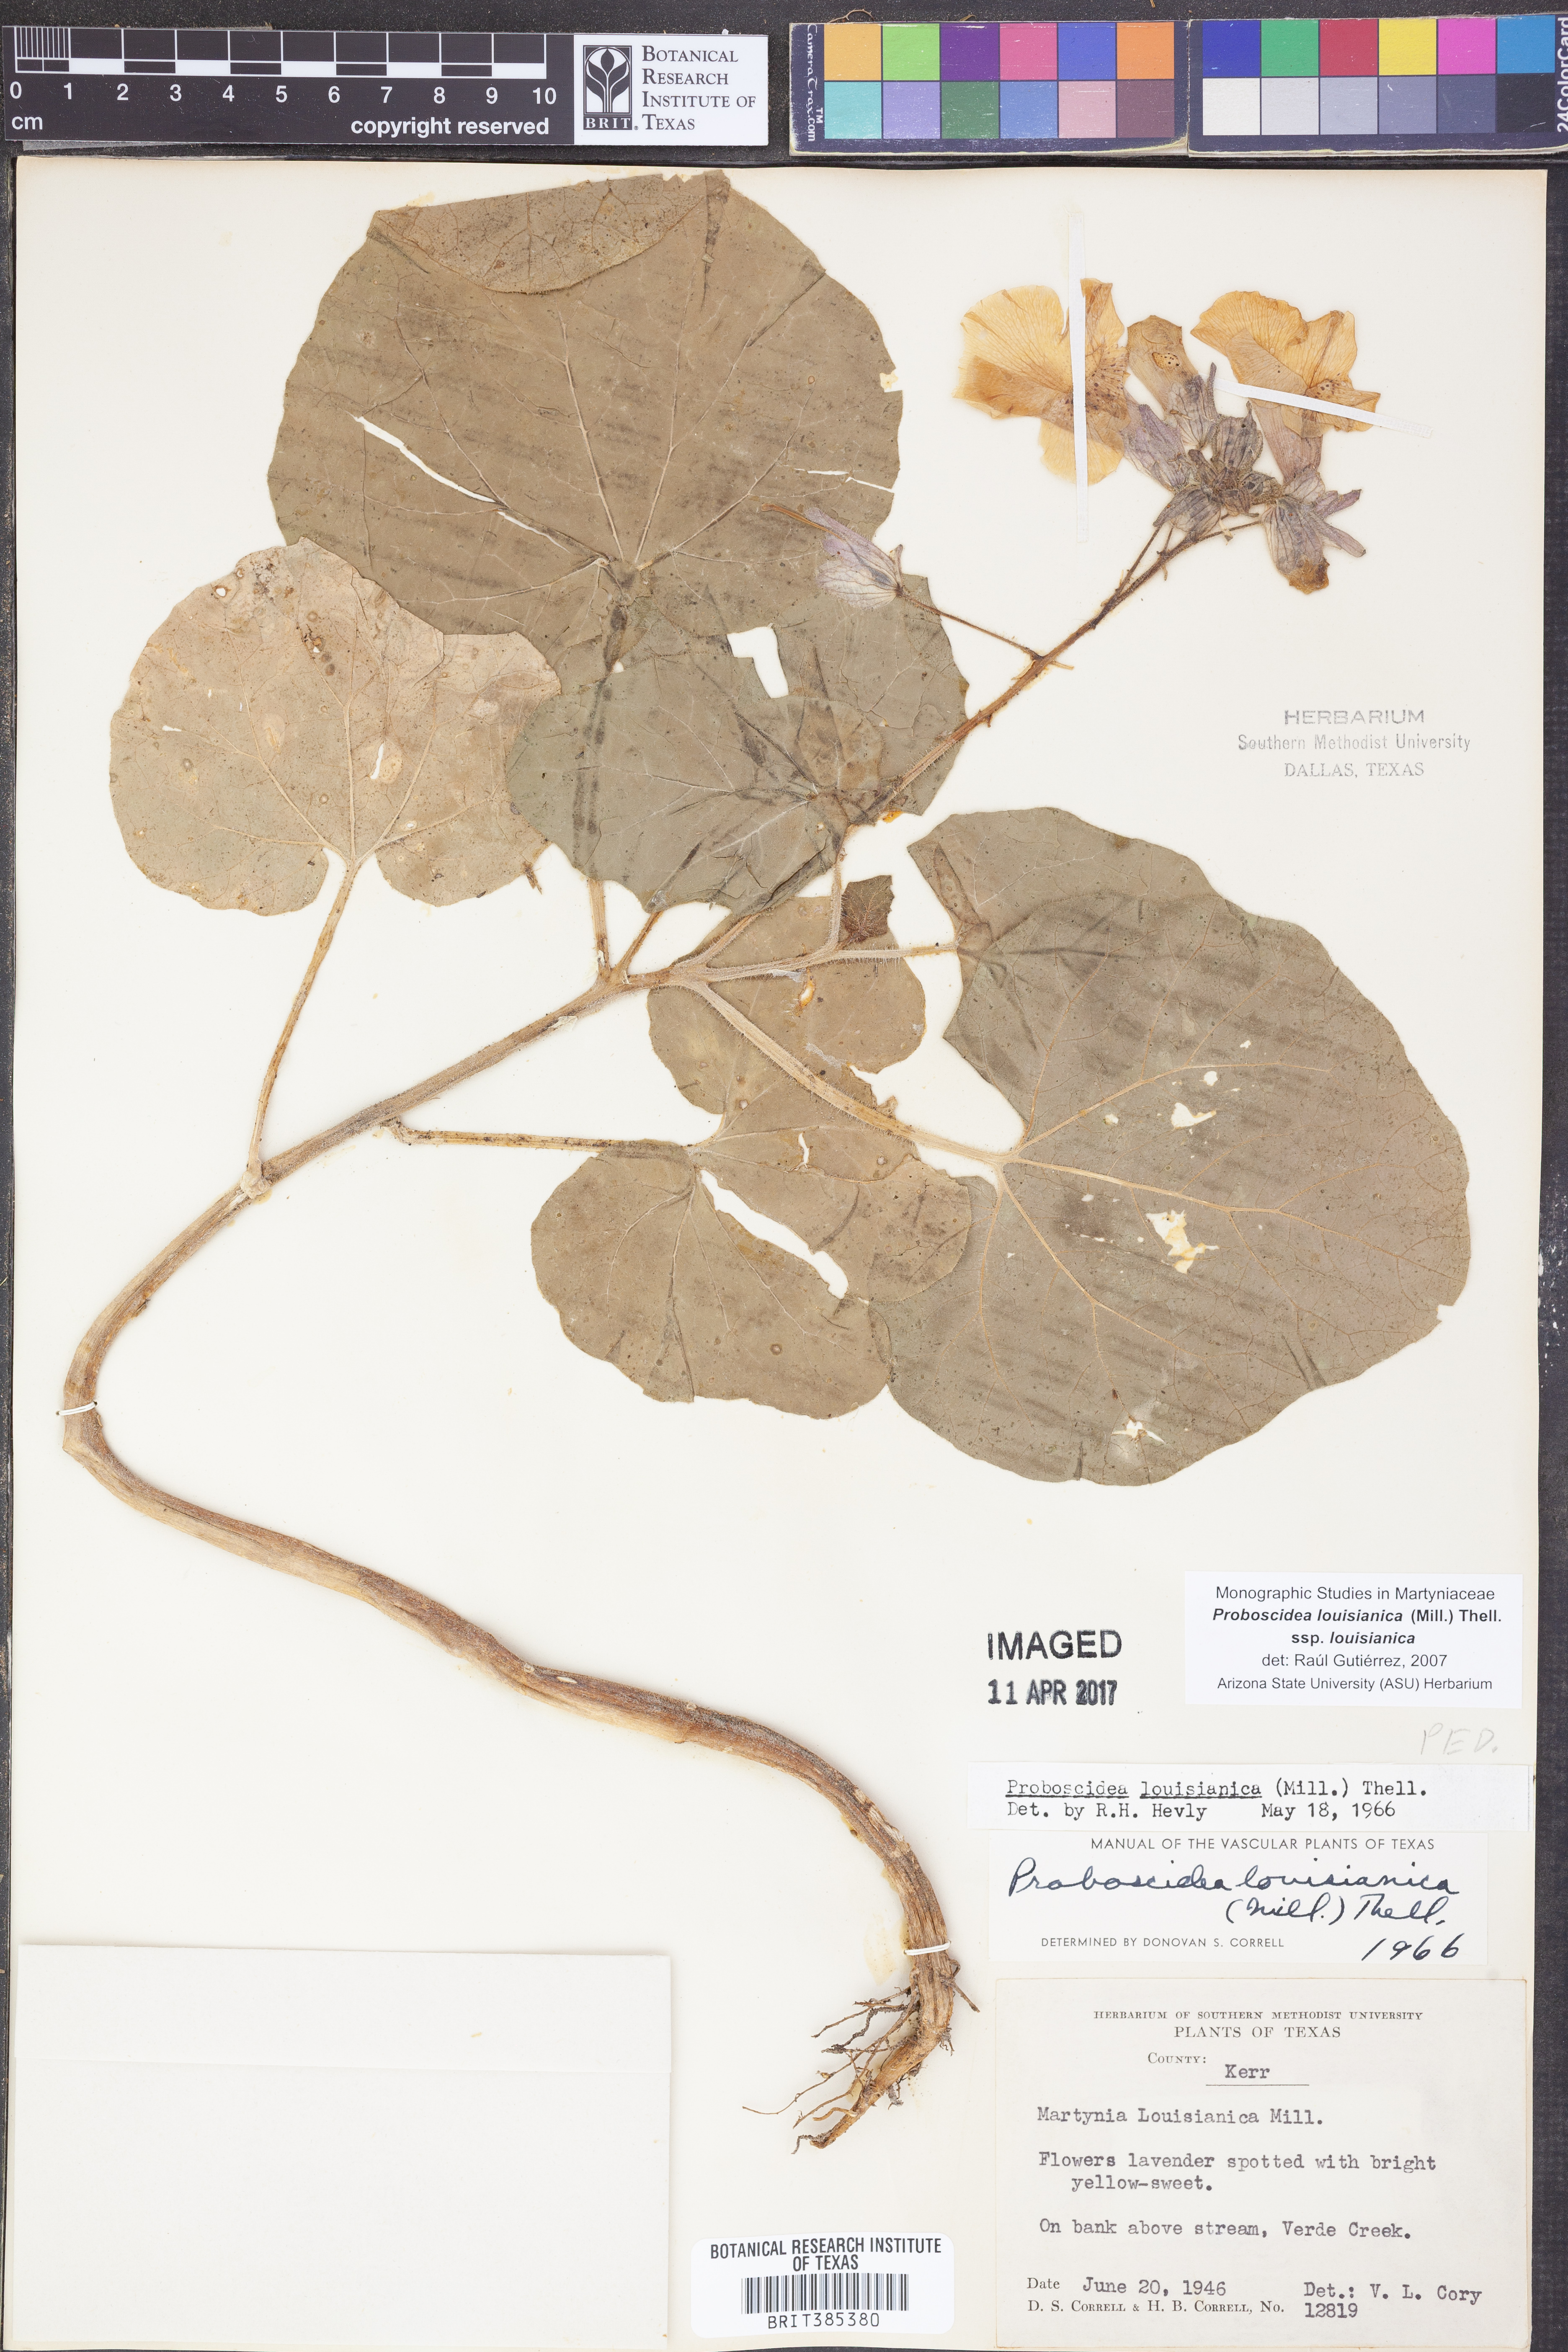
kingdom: Plantae
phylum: Tracheophyta
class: Magnoliopsida
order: Lamiales
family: Martyniaceae
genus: Proboscidea
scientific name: Proboscidea louisianica
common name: Elephant tusks
